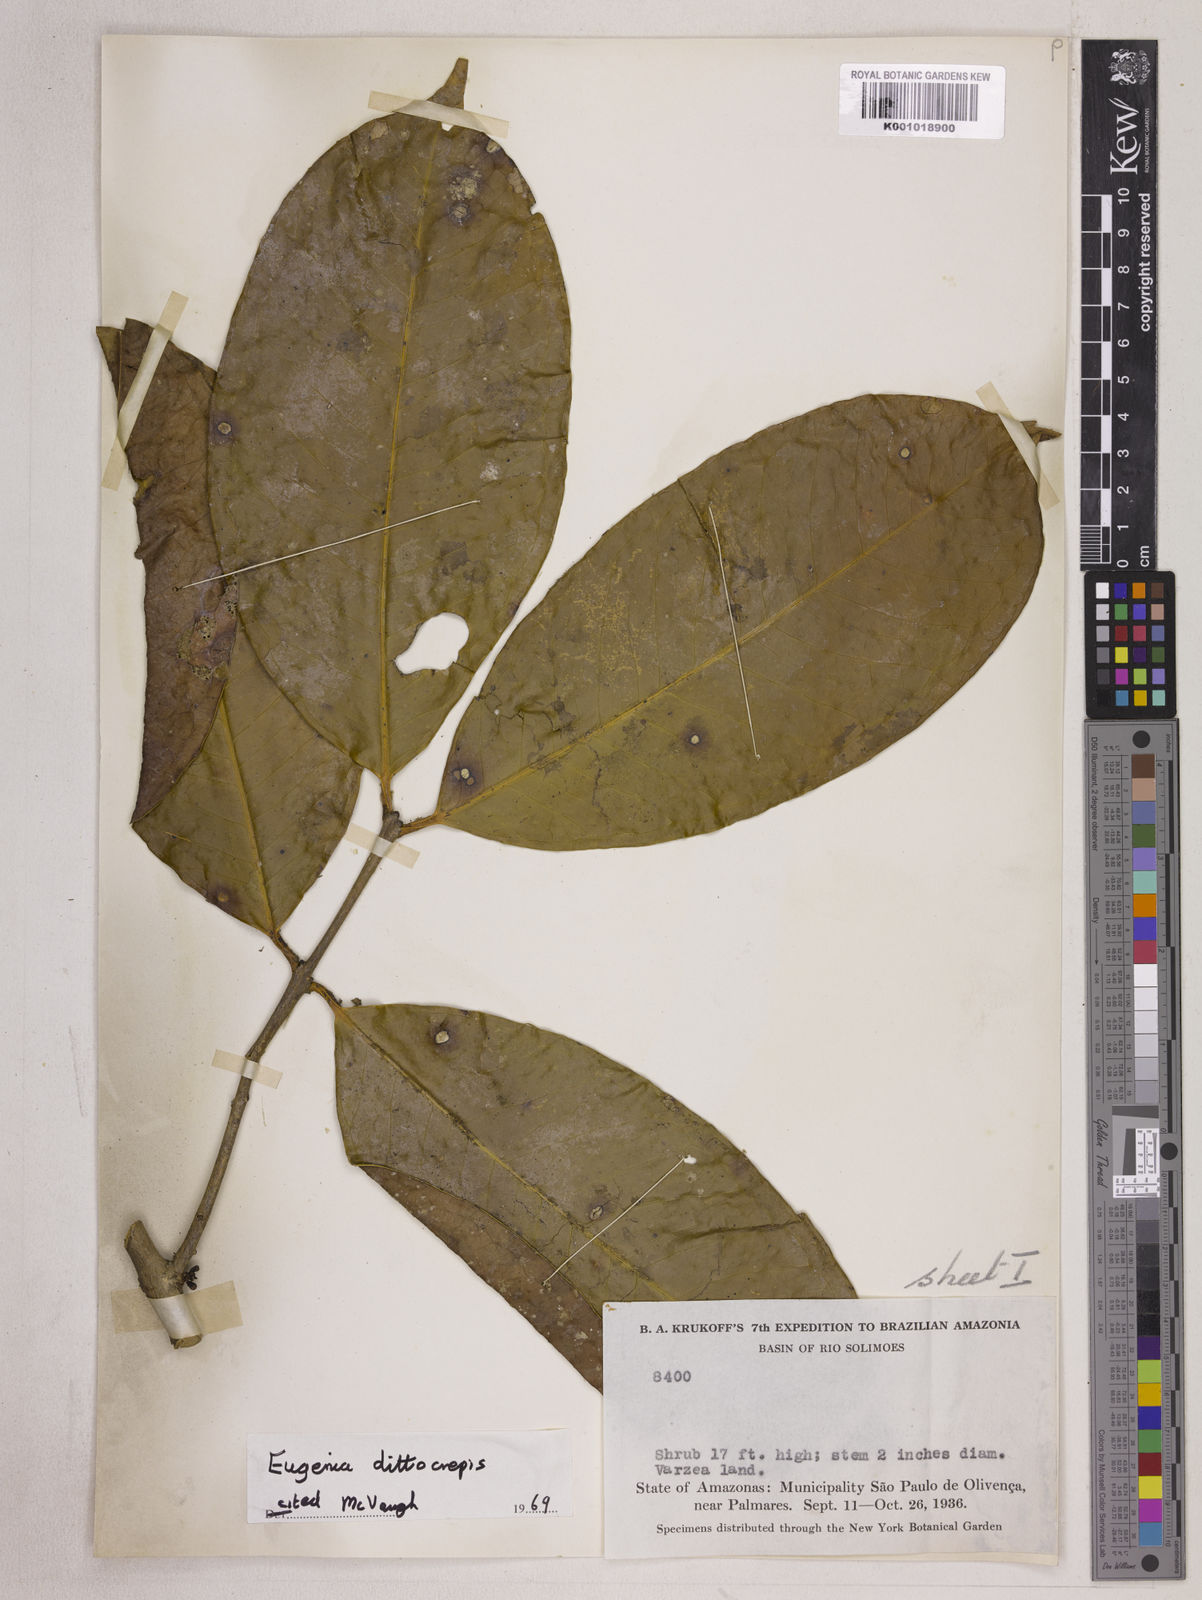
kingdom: Plantae
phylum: Tracheophyta
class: Magnoliopsida
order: Myrtales
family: Myrtaceae
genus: Eugenia
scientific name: Eugenia dittocrepis
